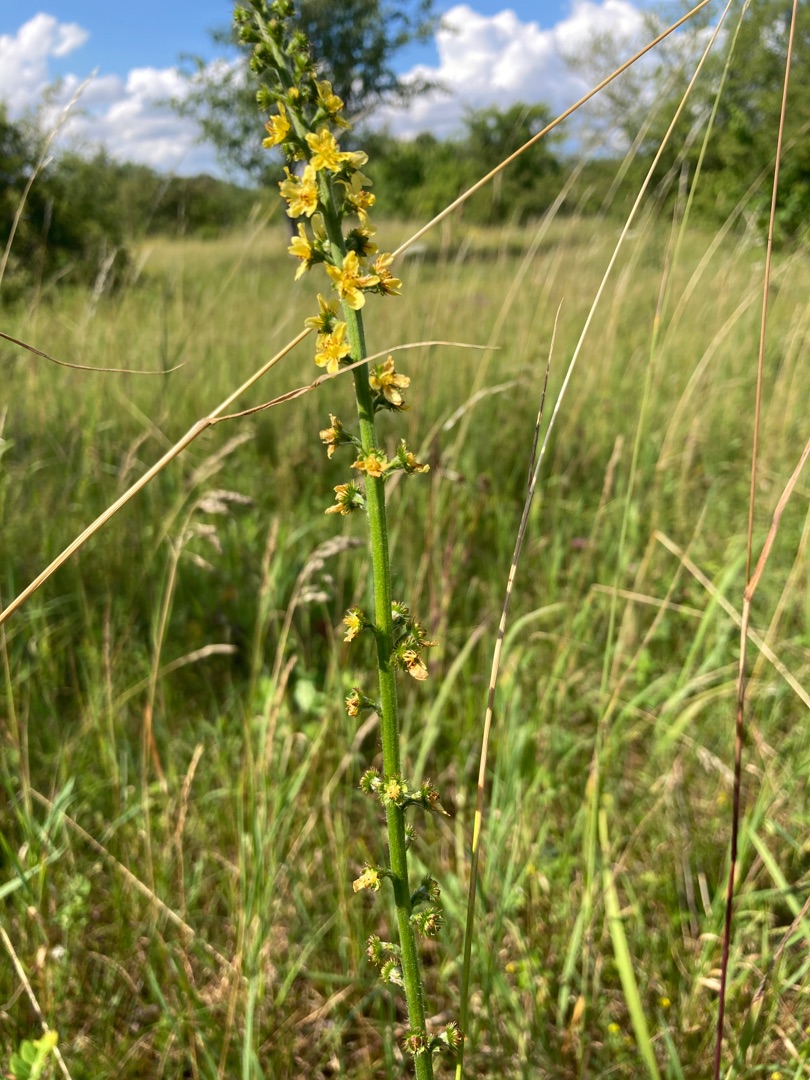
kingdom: Plantae
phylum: Tracheophyta
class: Magnoliopsida
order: Rosales
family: Rosaceae
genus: Agrimonia
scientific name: Agrimonia eupatoria
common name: Almindelig agermåne
